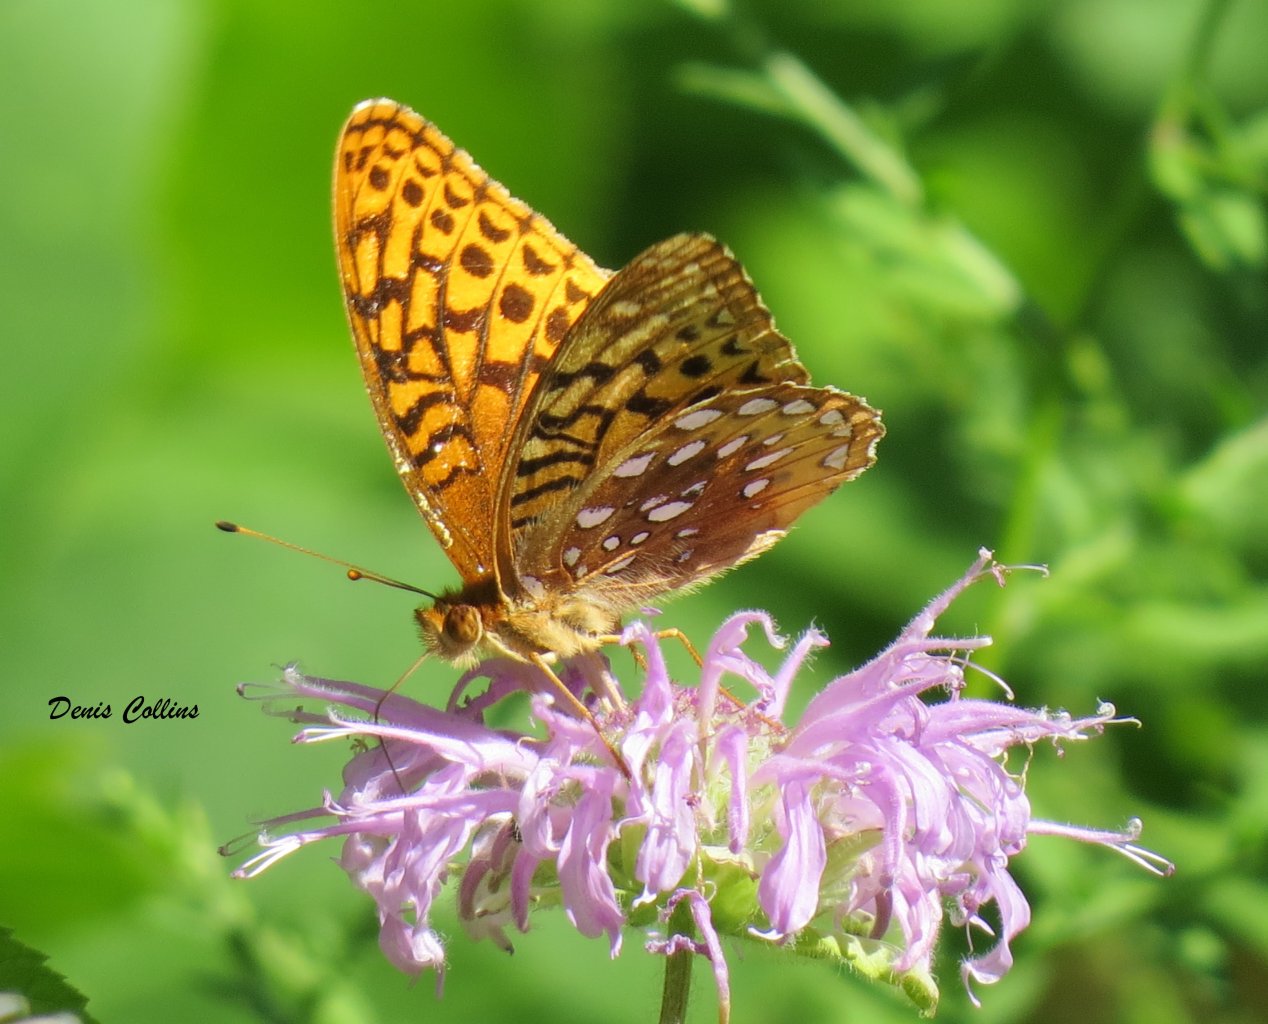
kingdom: Animalia
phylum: Arthropoda
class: Insecta
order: Lepidoptera
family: Nymphalidae
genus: Speyeria
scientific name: Speyeria cybele
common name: Great Spangled Fritillary
